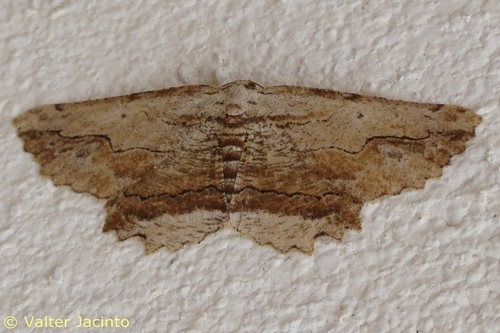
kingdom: Animalia
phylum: Arthropoda
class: Insecta
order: Lepidoptera
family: Geometridae
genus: Menophra
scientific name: Menophra abruptaria
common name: Waved umber
